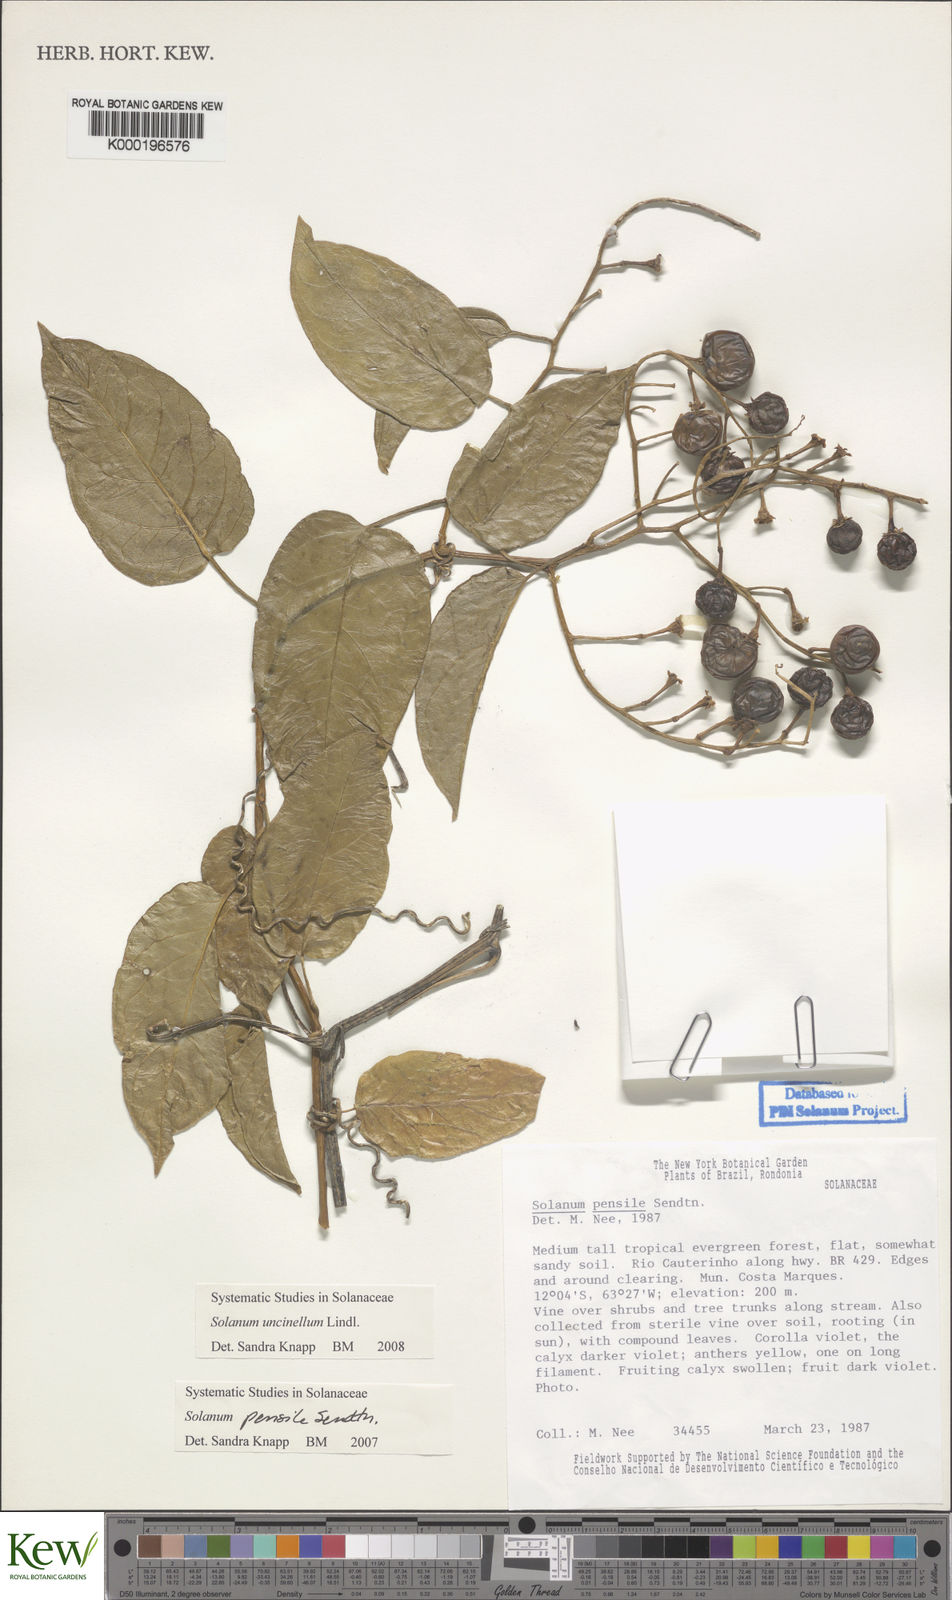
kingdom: Plantae
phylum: Tracheophyta
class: Magnoliopsida
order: Solanales
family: Solanaceae
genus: Solanum
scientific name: Solanum uncinellum
